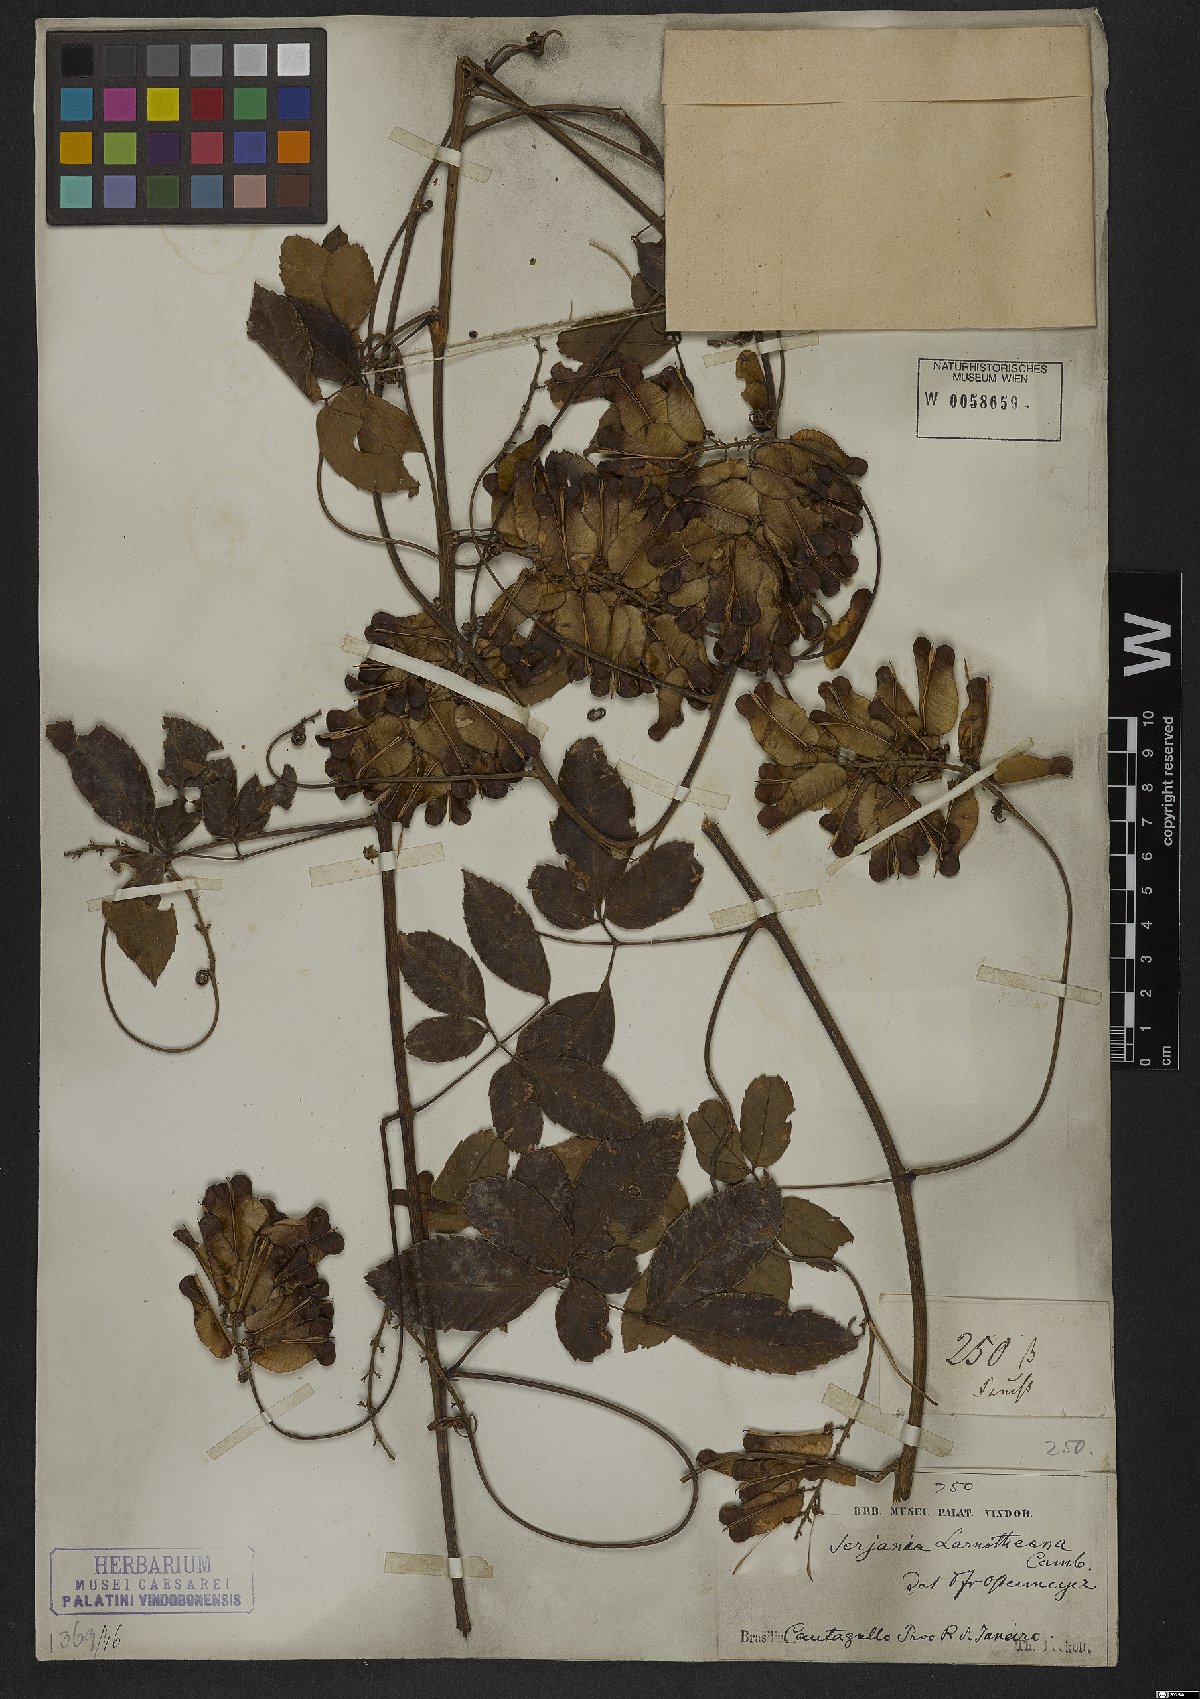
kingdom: Plantae
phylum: Tracheophyta
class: Magnoliopsida
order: Sapindales
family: Sapindaceae
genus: Serjania
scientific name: Serjania laruotteana
